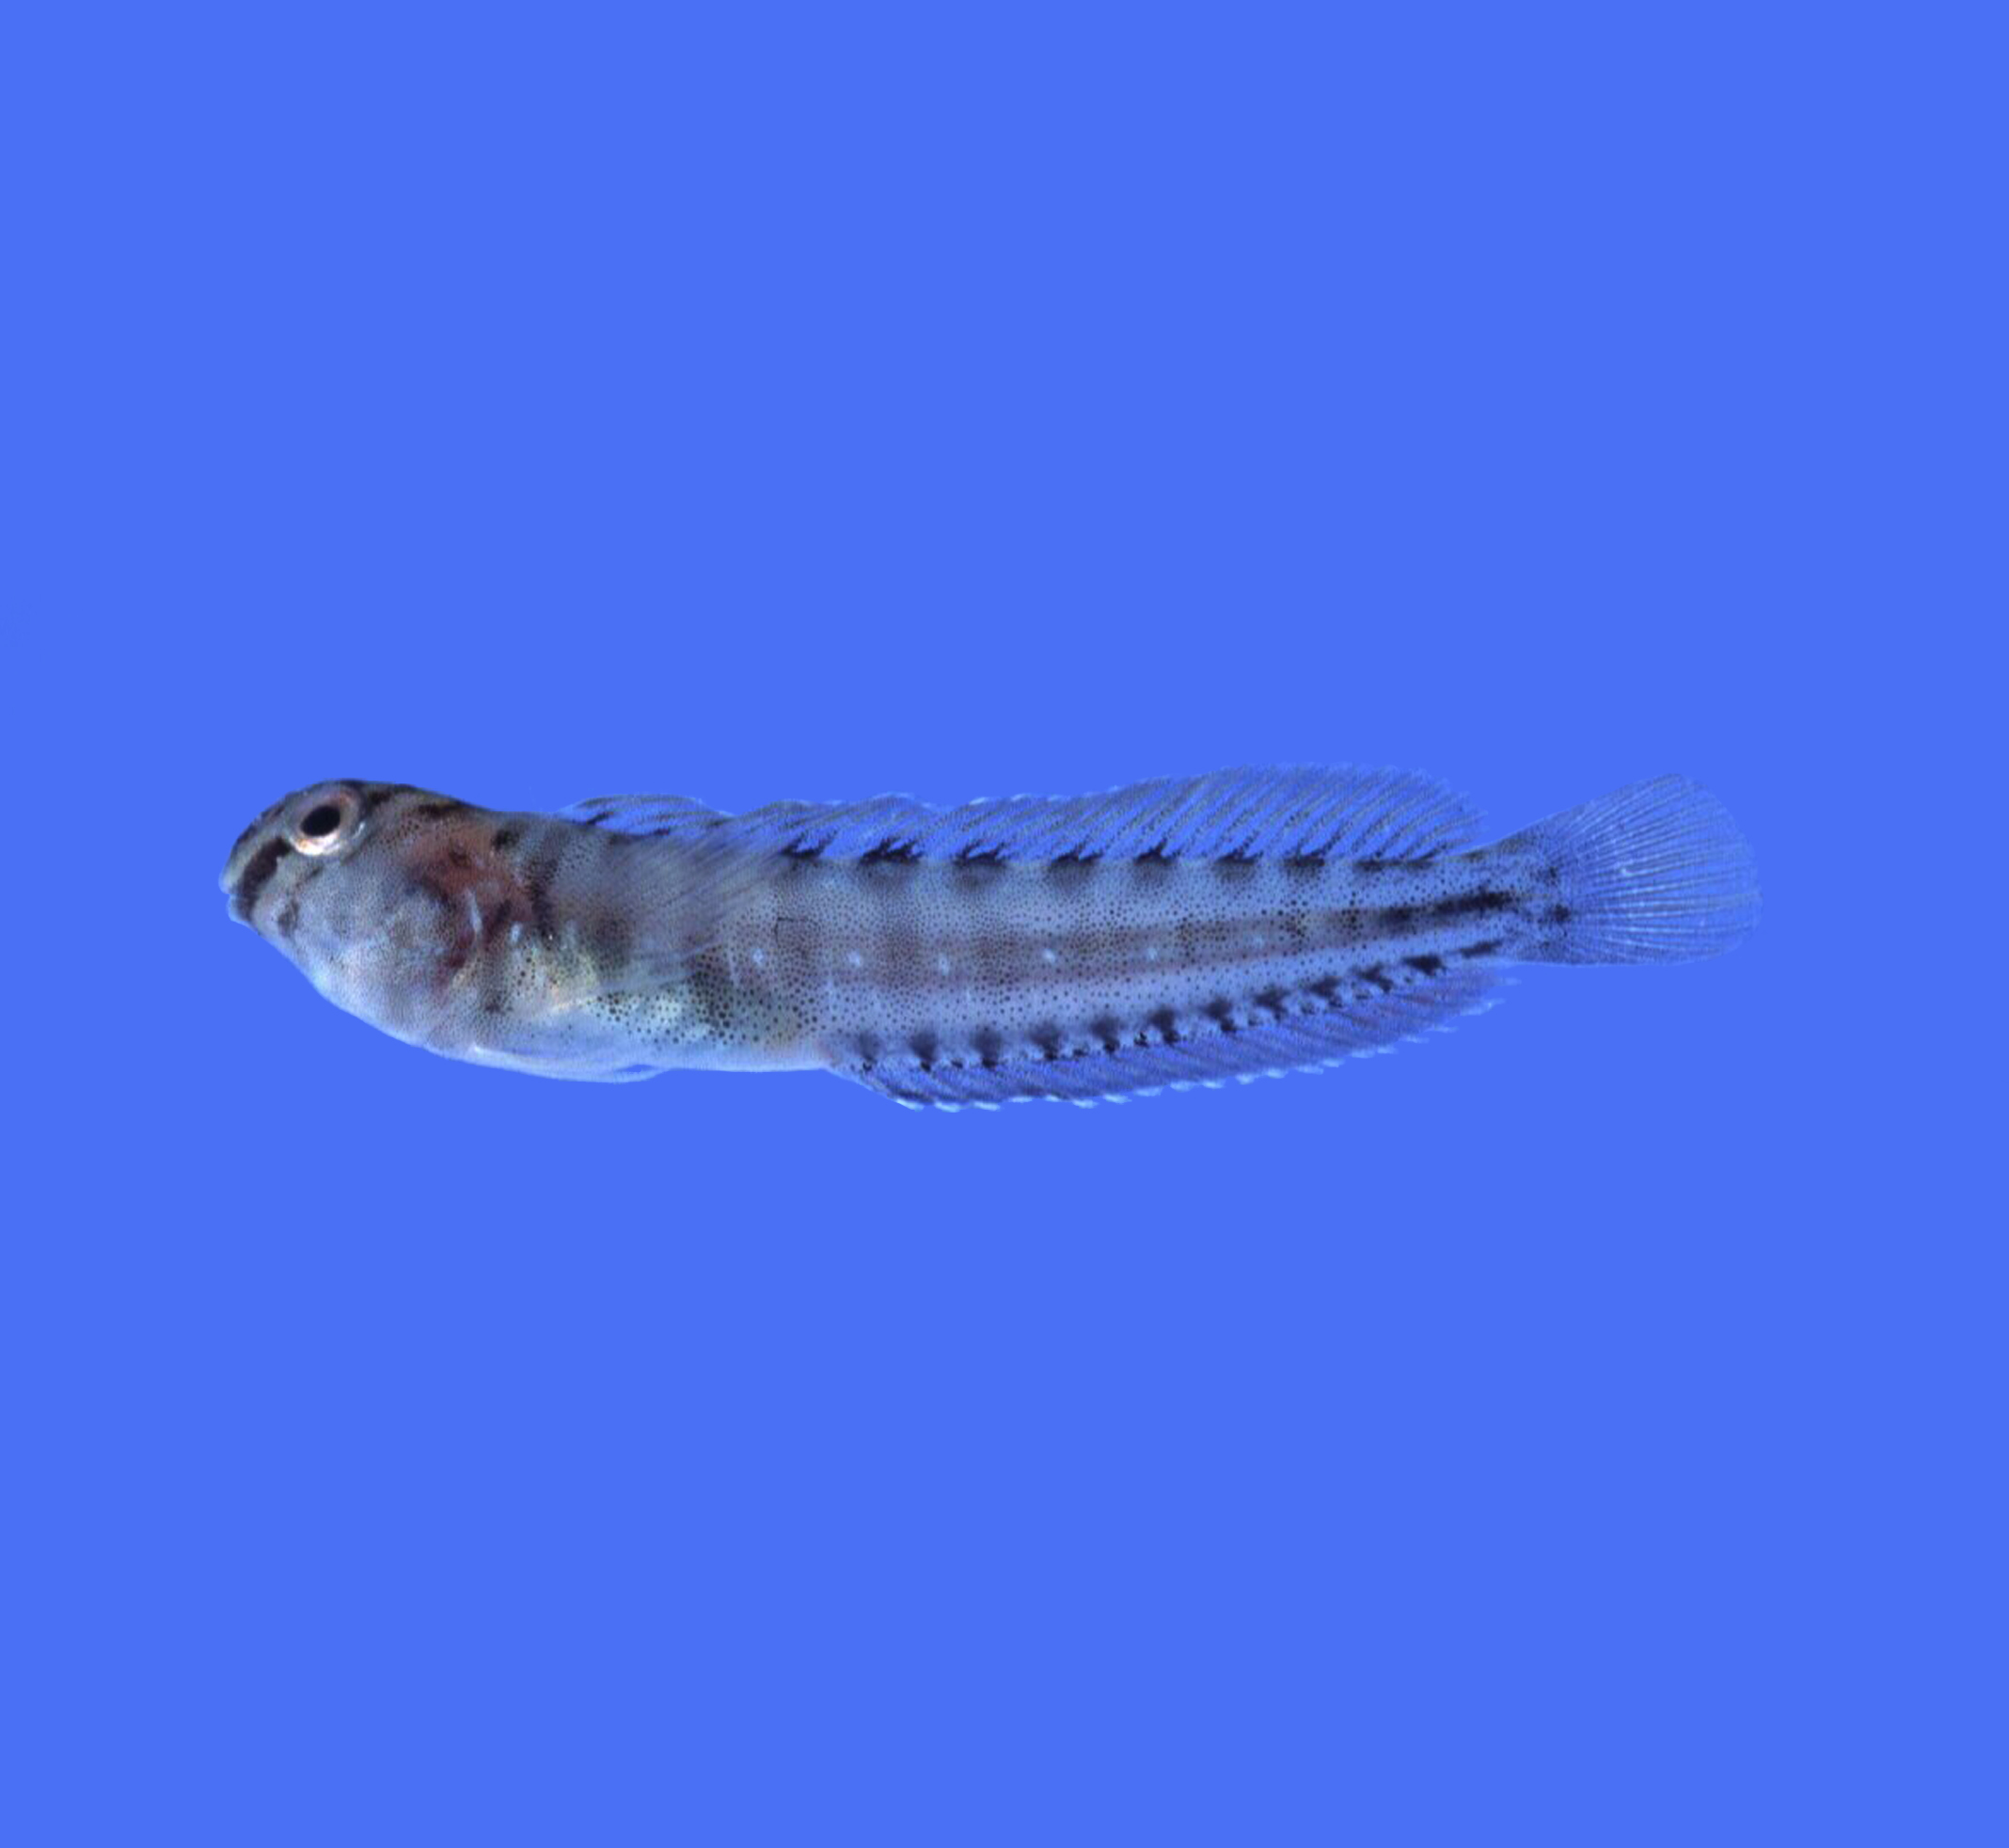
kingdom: Animalia
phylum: Chordata
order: Perciformes
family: Blenniidae
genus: Omobranchus
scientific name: Omobranchus banditus
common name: Bandit blenny
